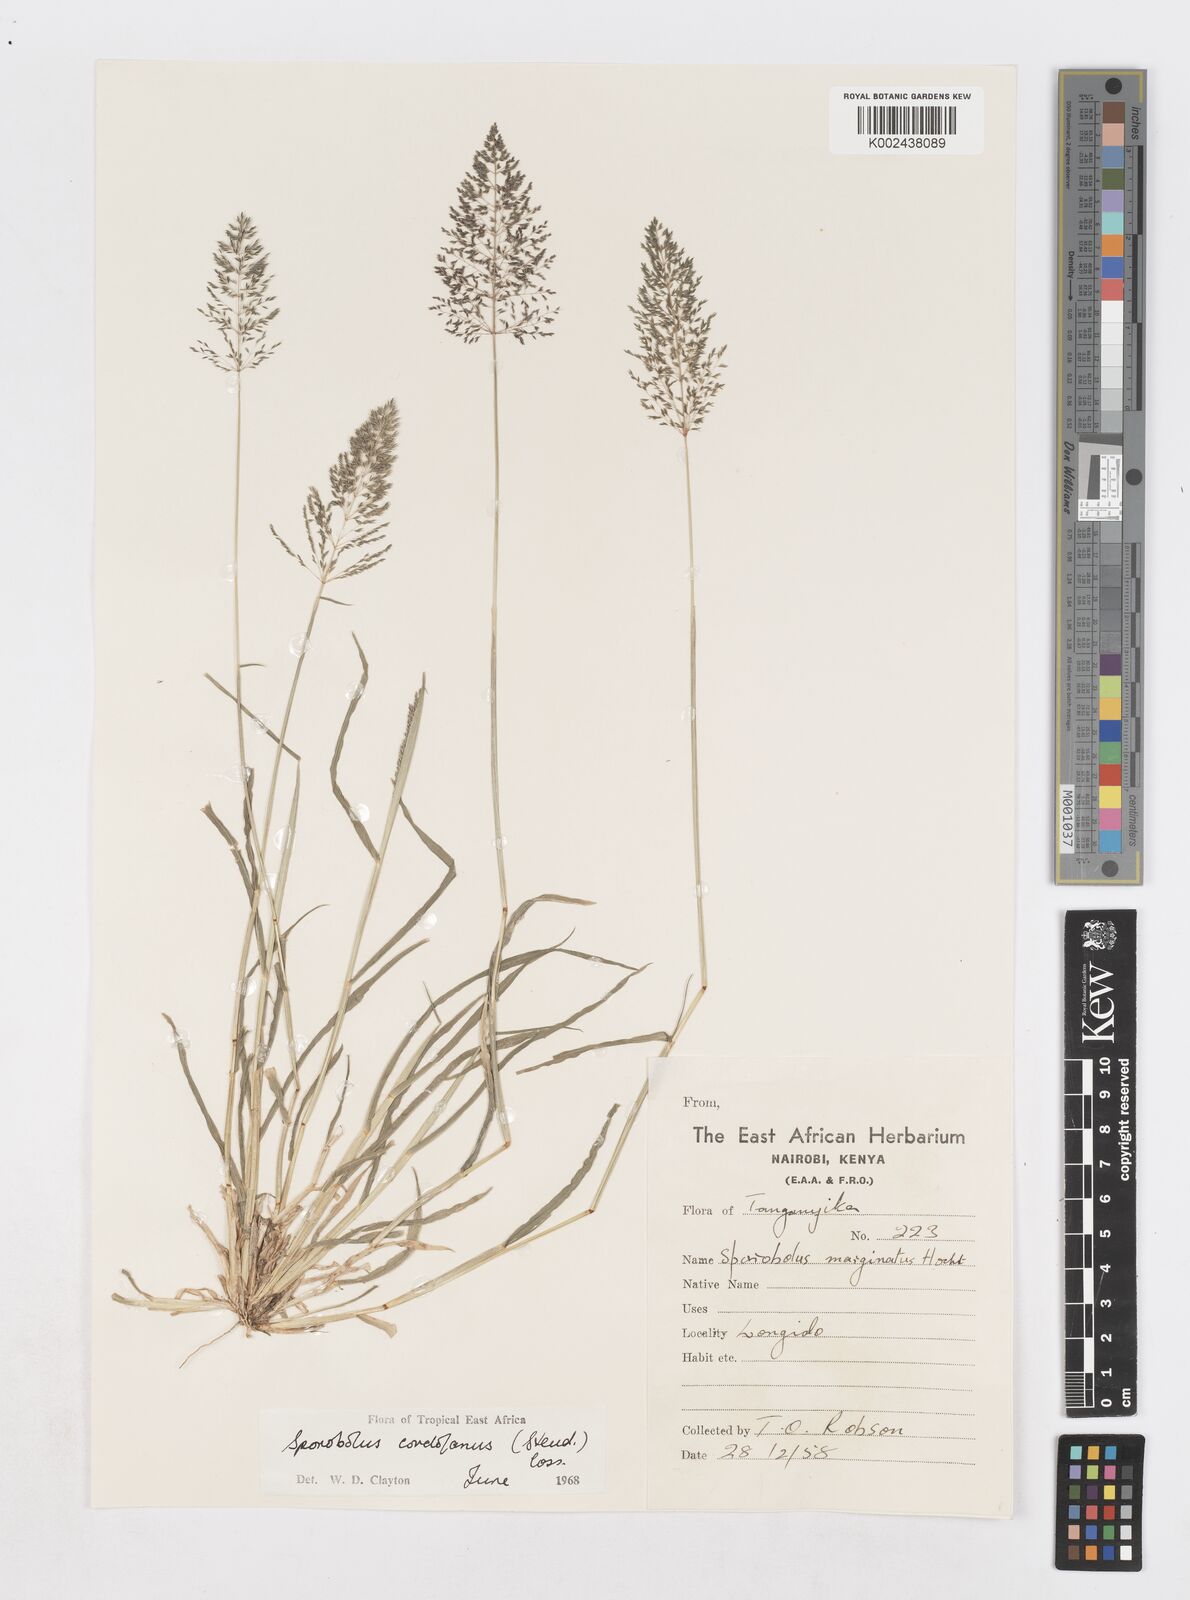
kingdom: Plantae
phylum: Tracheophyta
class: Liliopsida
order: Poales
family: Poaceae
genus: Sporobolus
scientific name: Sporobolus cordofanus
